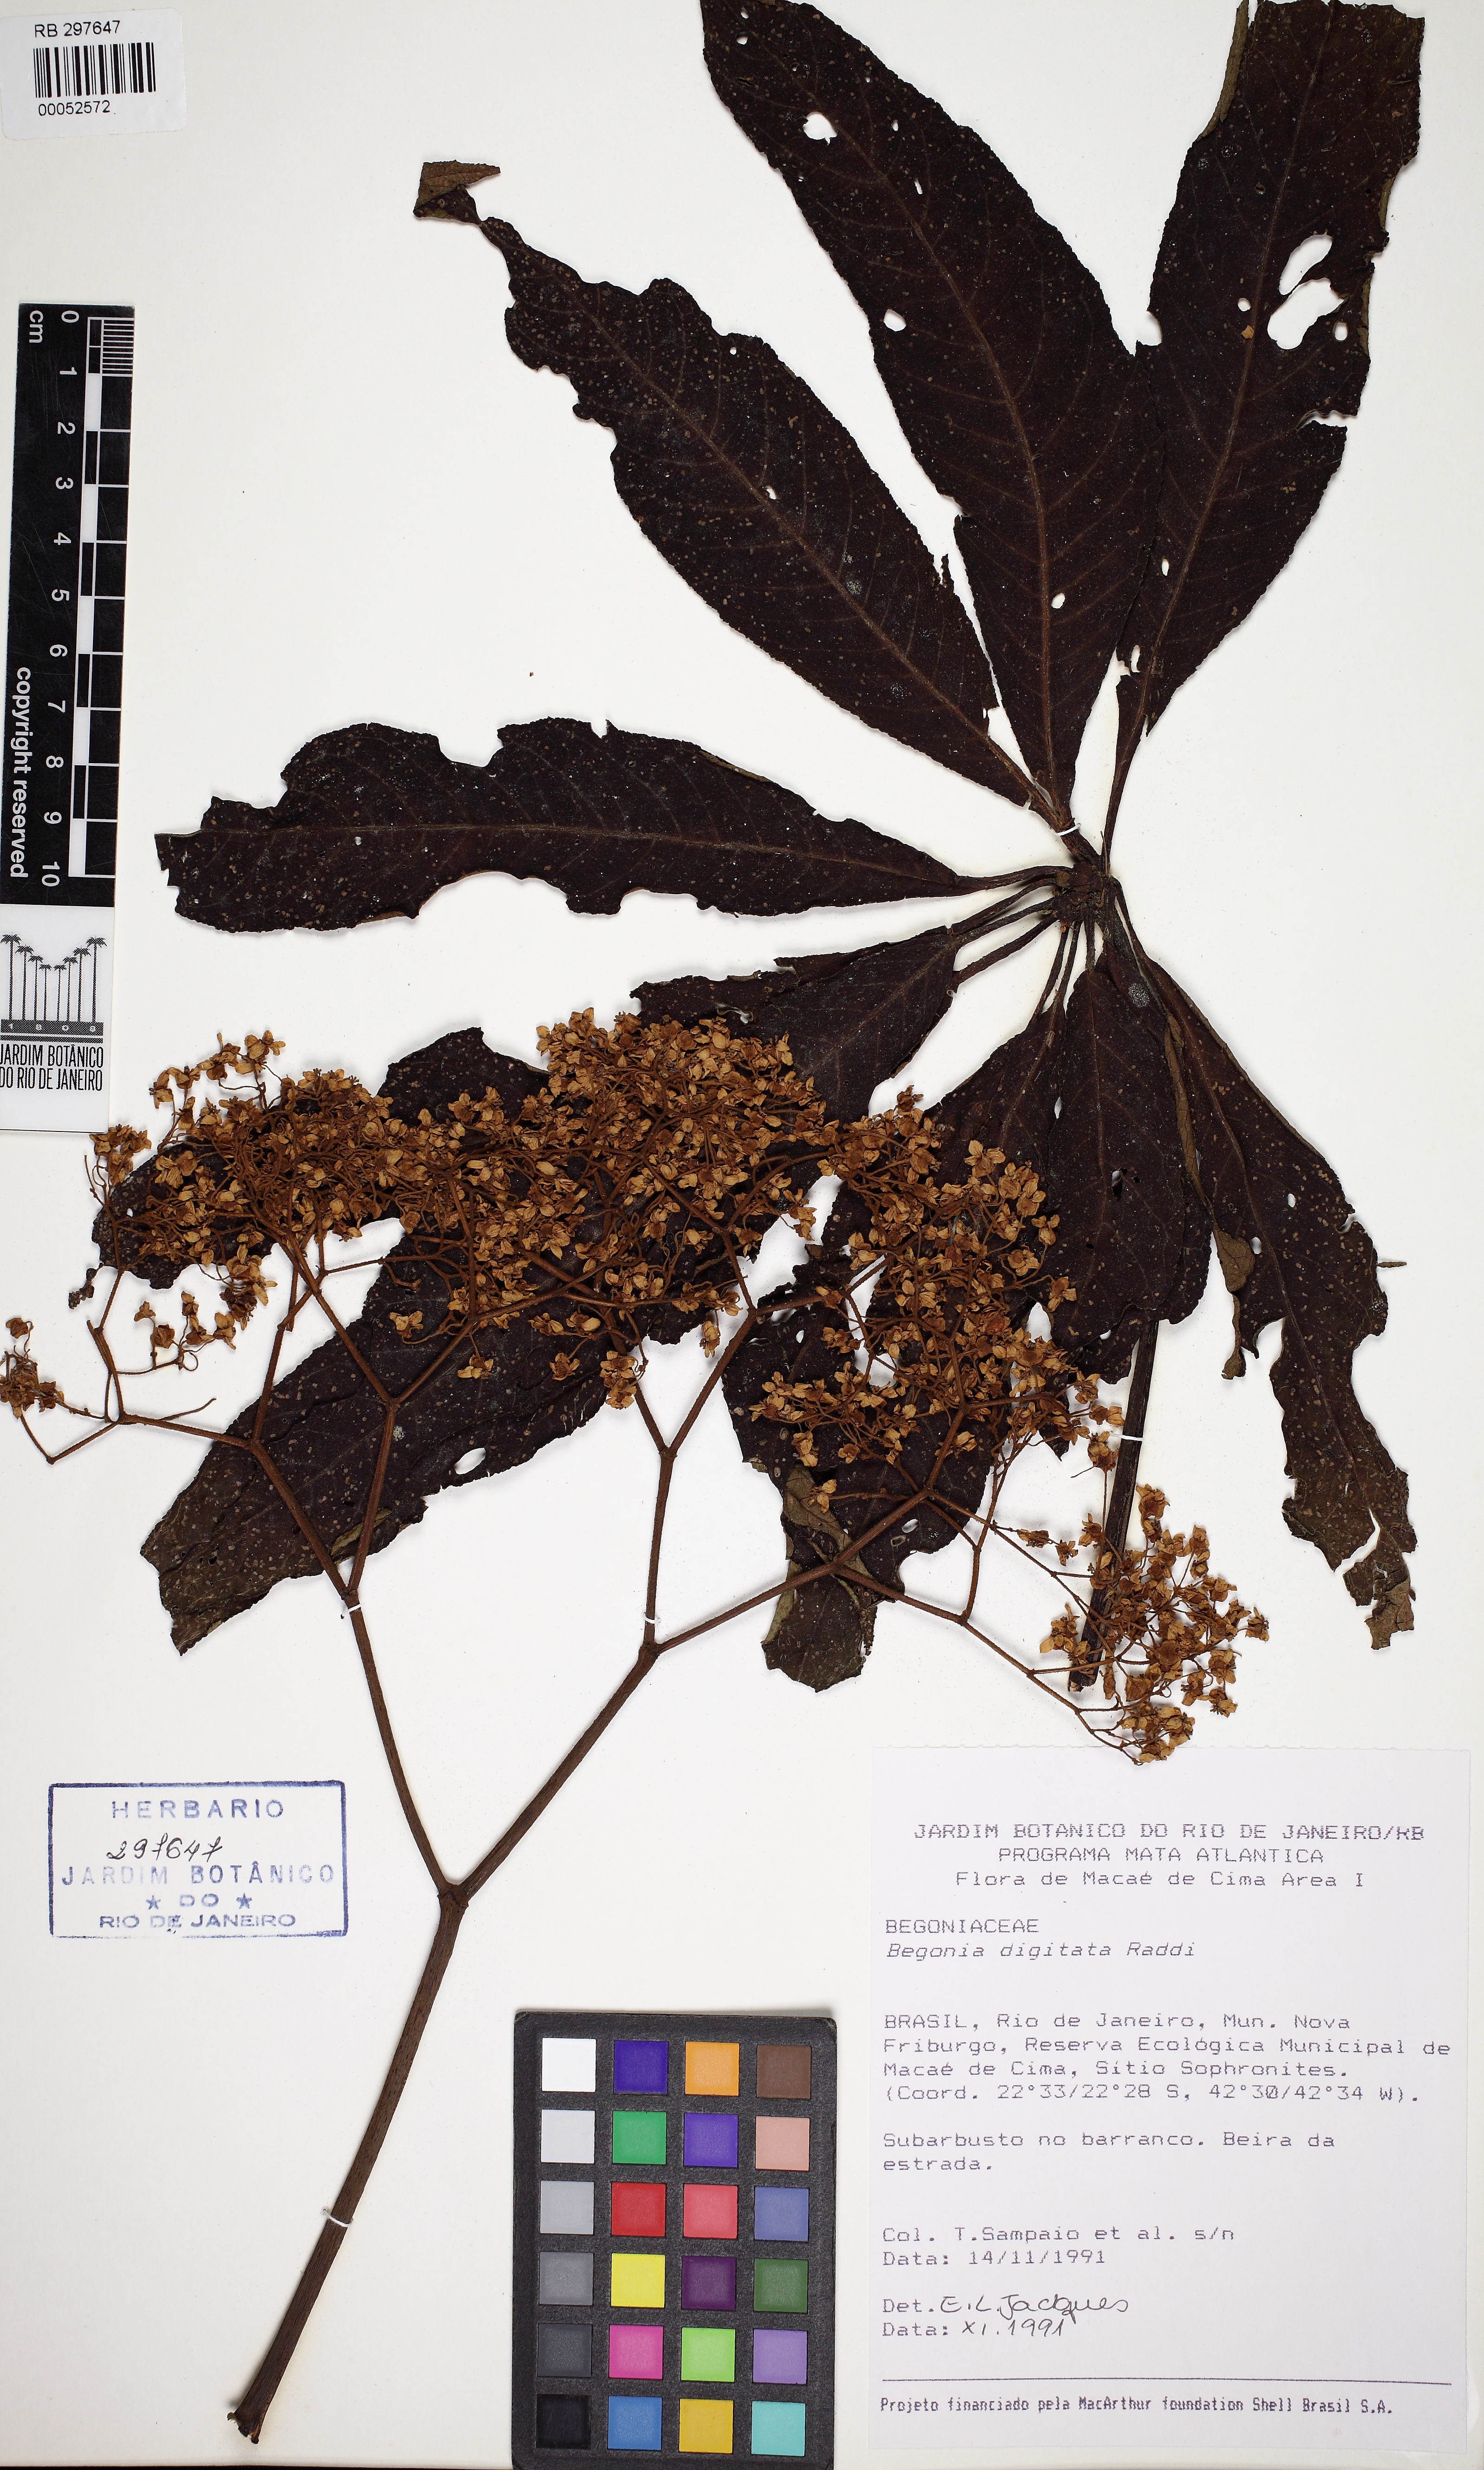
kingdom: Plantae
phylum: Tracheophyta
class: Magnoliopsida
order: Cucurbitales
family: Begoniaceae
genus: Begonia
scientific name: Begonia luxurians
